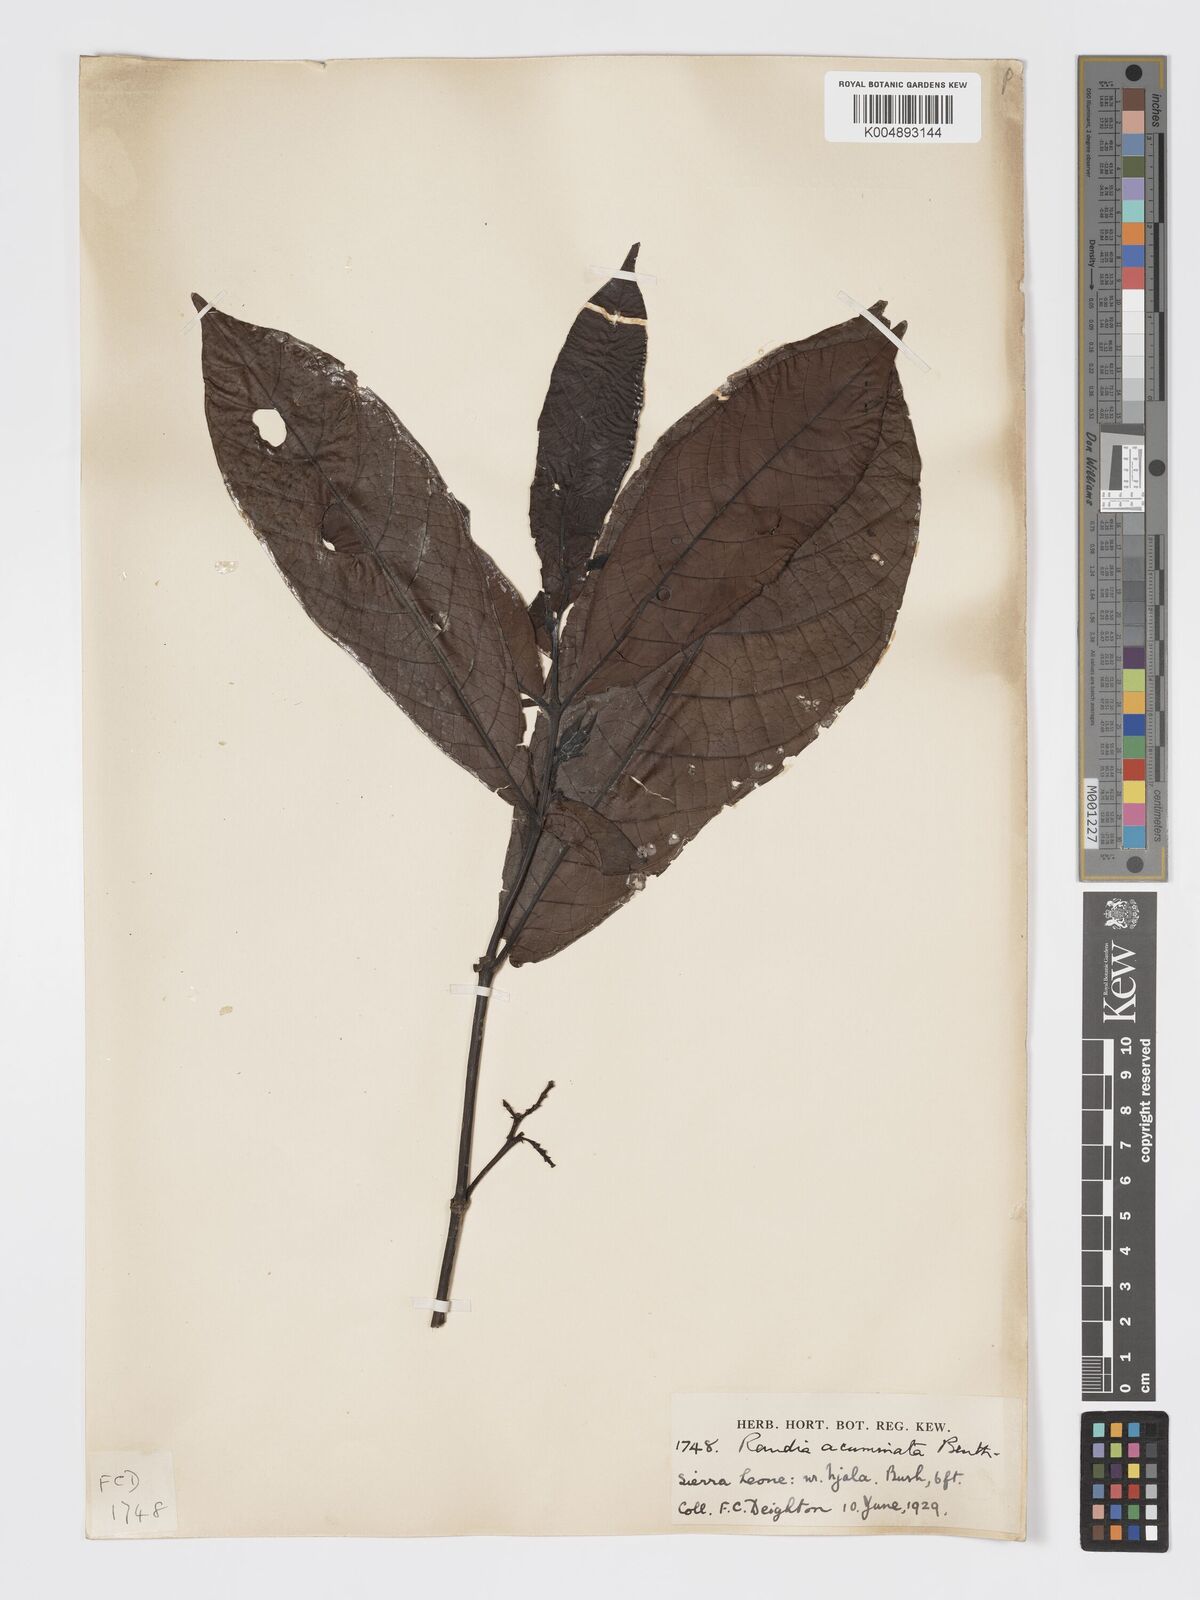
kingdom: Plantae
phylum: Tracheophyta
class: Magnoliopsida
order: Gentianales
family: Rubiaceae
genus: Massularia
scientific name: Massularia acuminata
